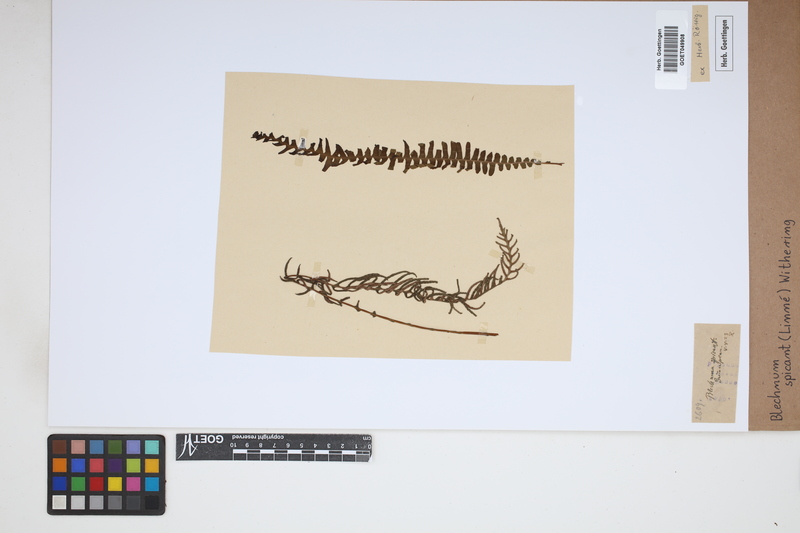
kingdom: Plantae
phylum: Tracheophyta
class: Polypodiopsida
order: Polypodiales
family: Blechnaceae
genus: Struthiopteris
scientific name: Struthiopteris spicant
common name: Deer fern
